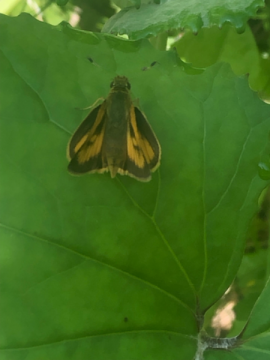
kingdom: Animalia
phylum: Arthropoda
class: Insecta
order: Lepidoptera
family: Hesperiidae
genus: Lon
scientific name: Lon hobomok
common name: Hobomok Skipper
